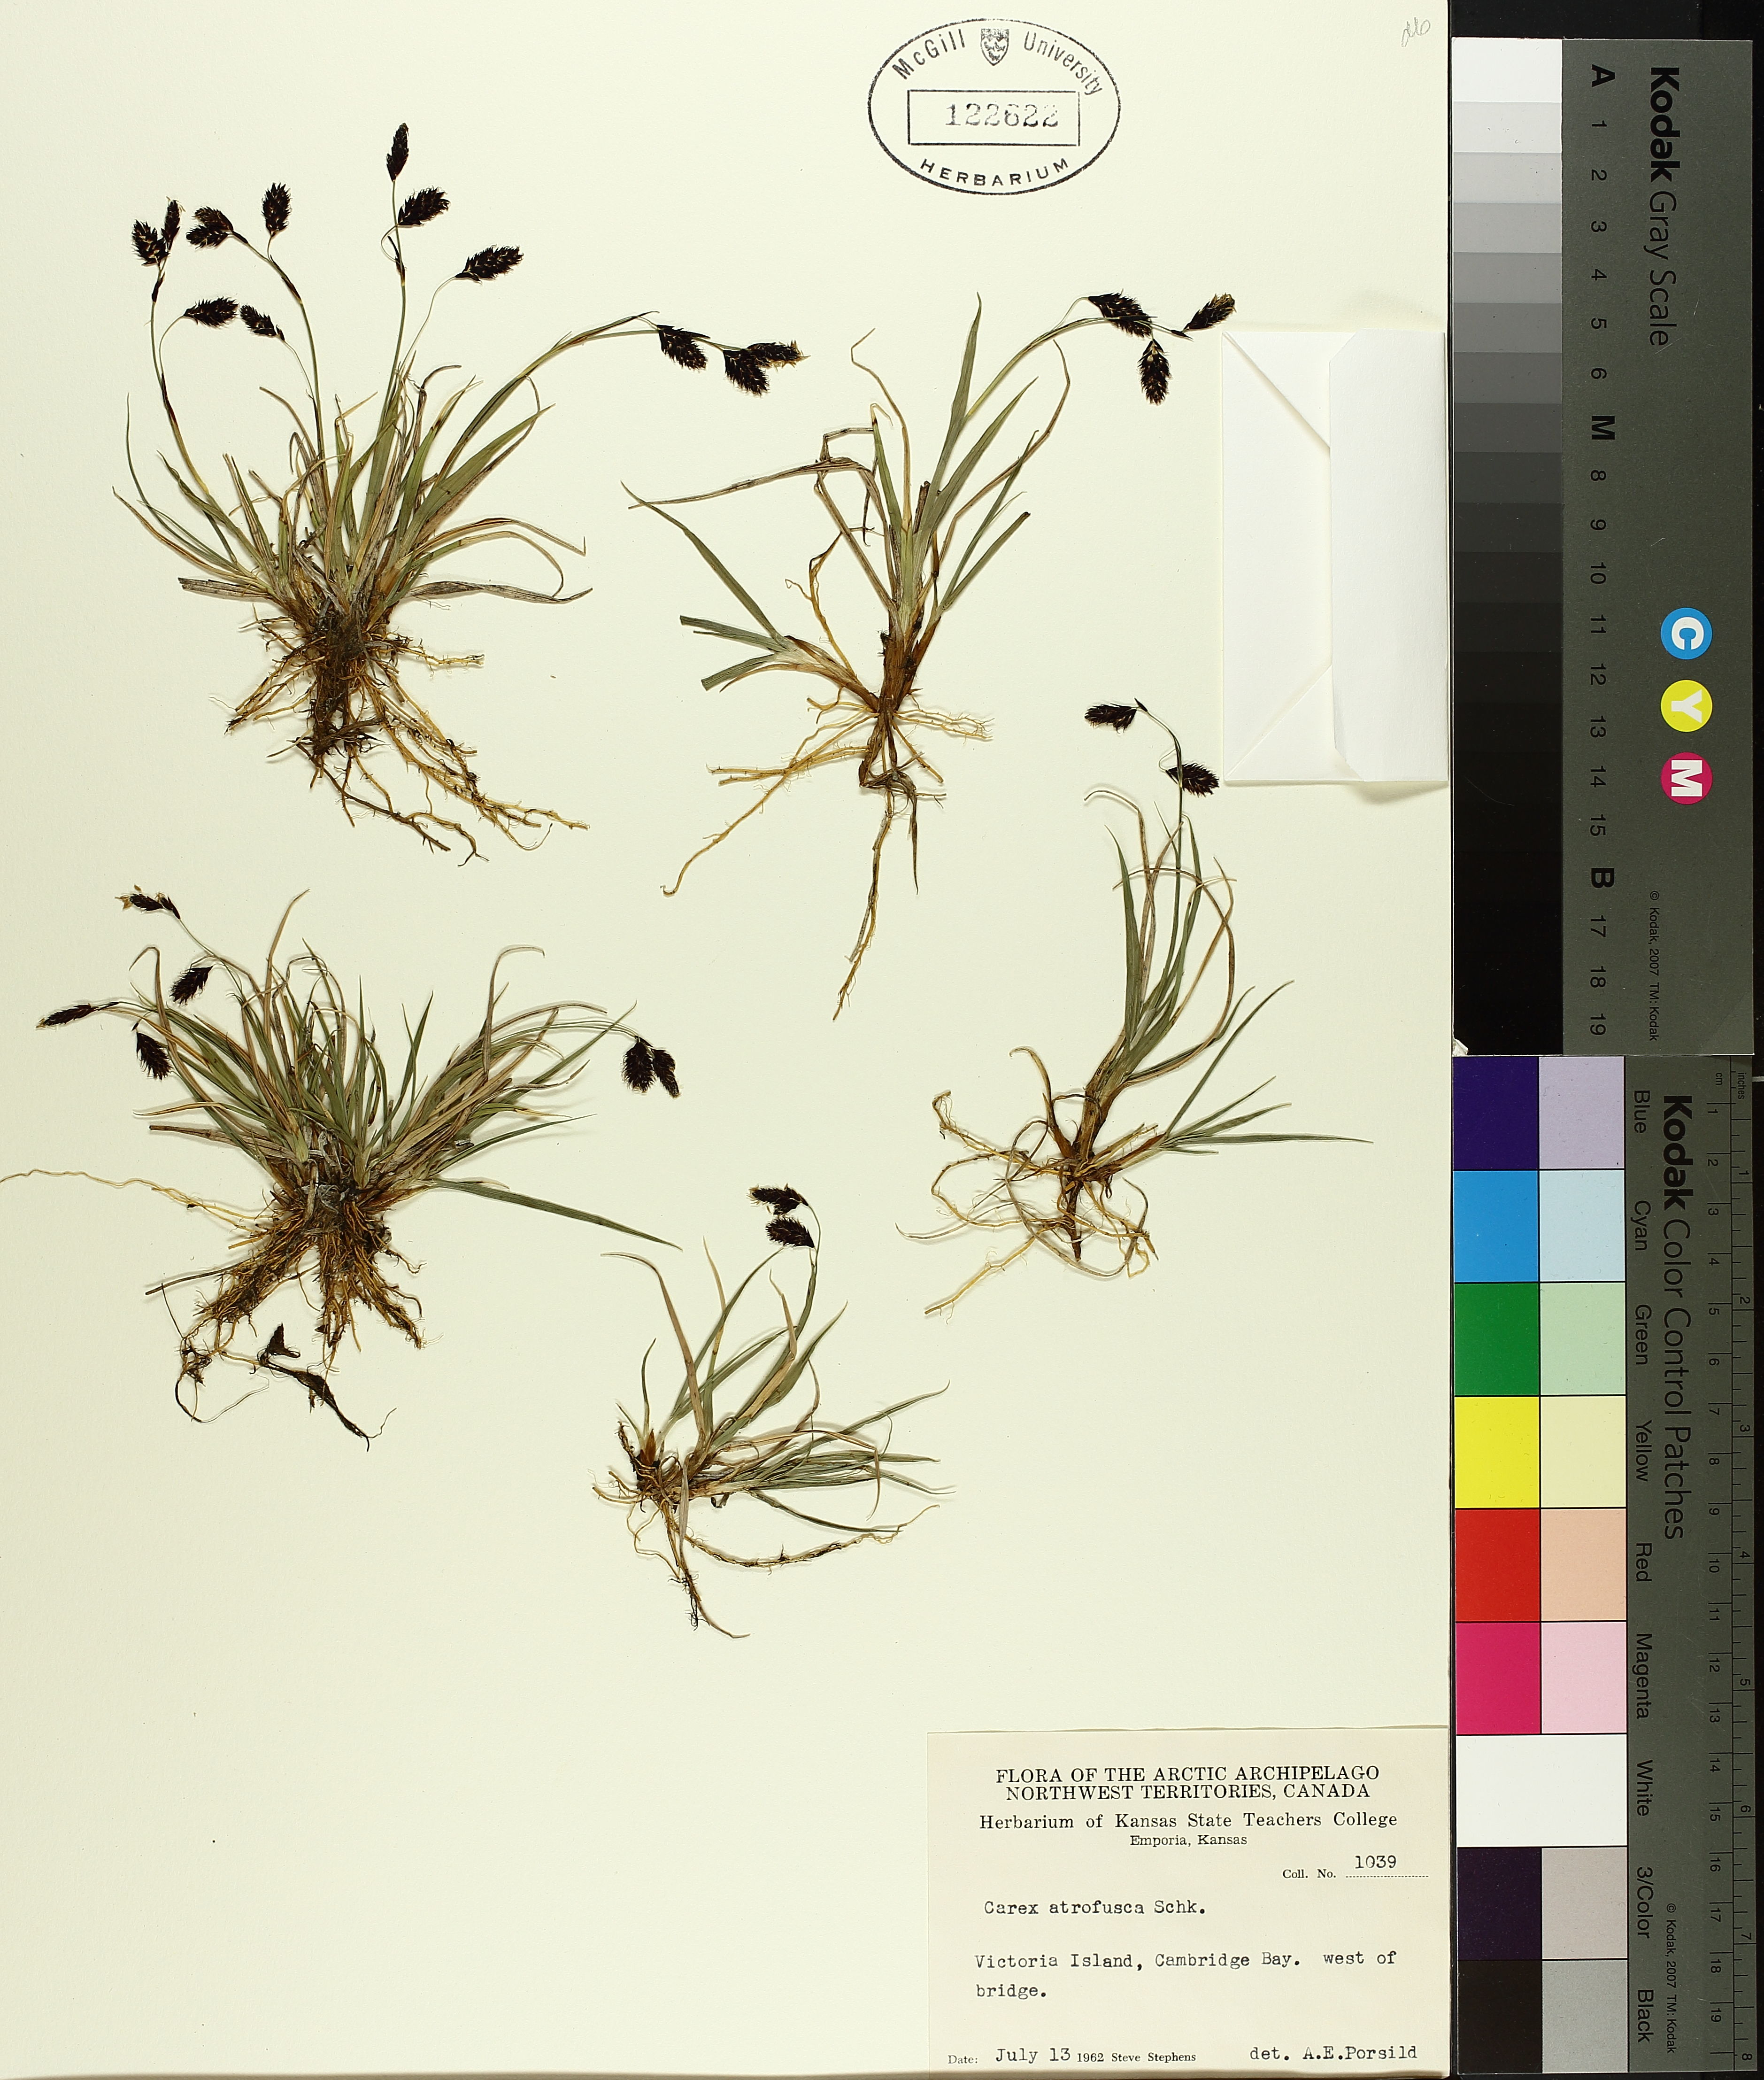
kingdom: Plantae
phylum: Tracheophyta
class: Liliopsida
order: Poales
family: Cyperaceae
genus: Carex
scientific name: Carex atrofusca
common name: Scorched alpine-sedge
